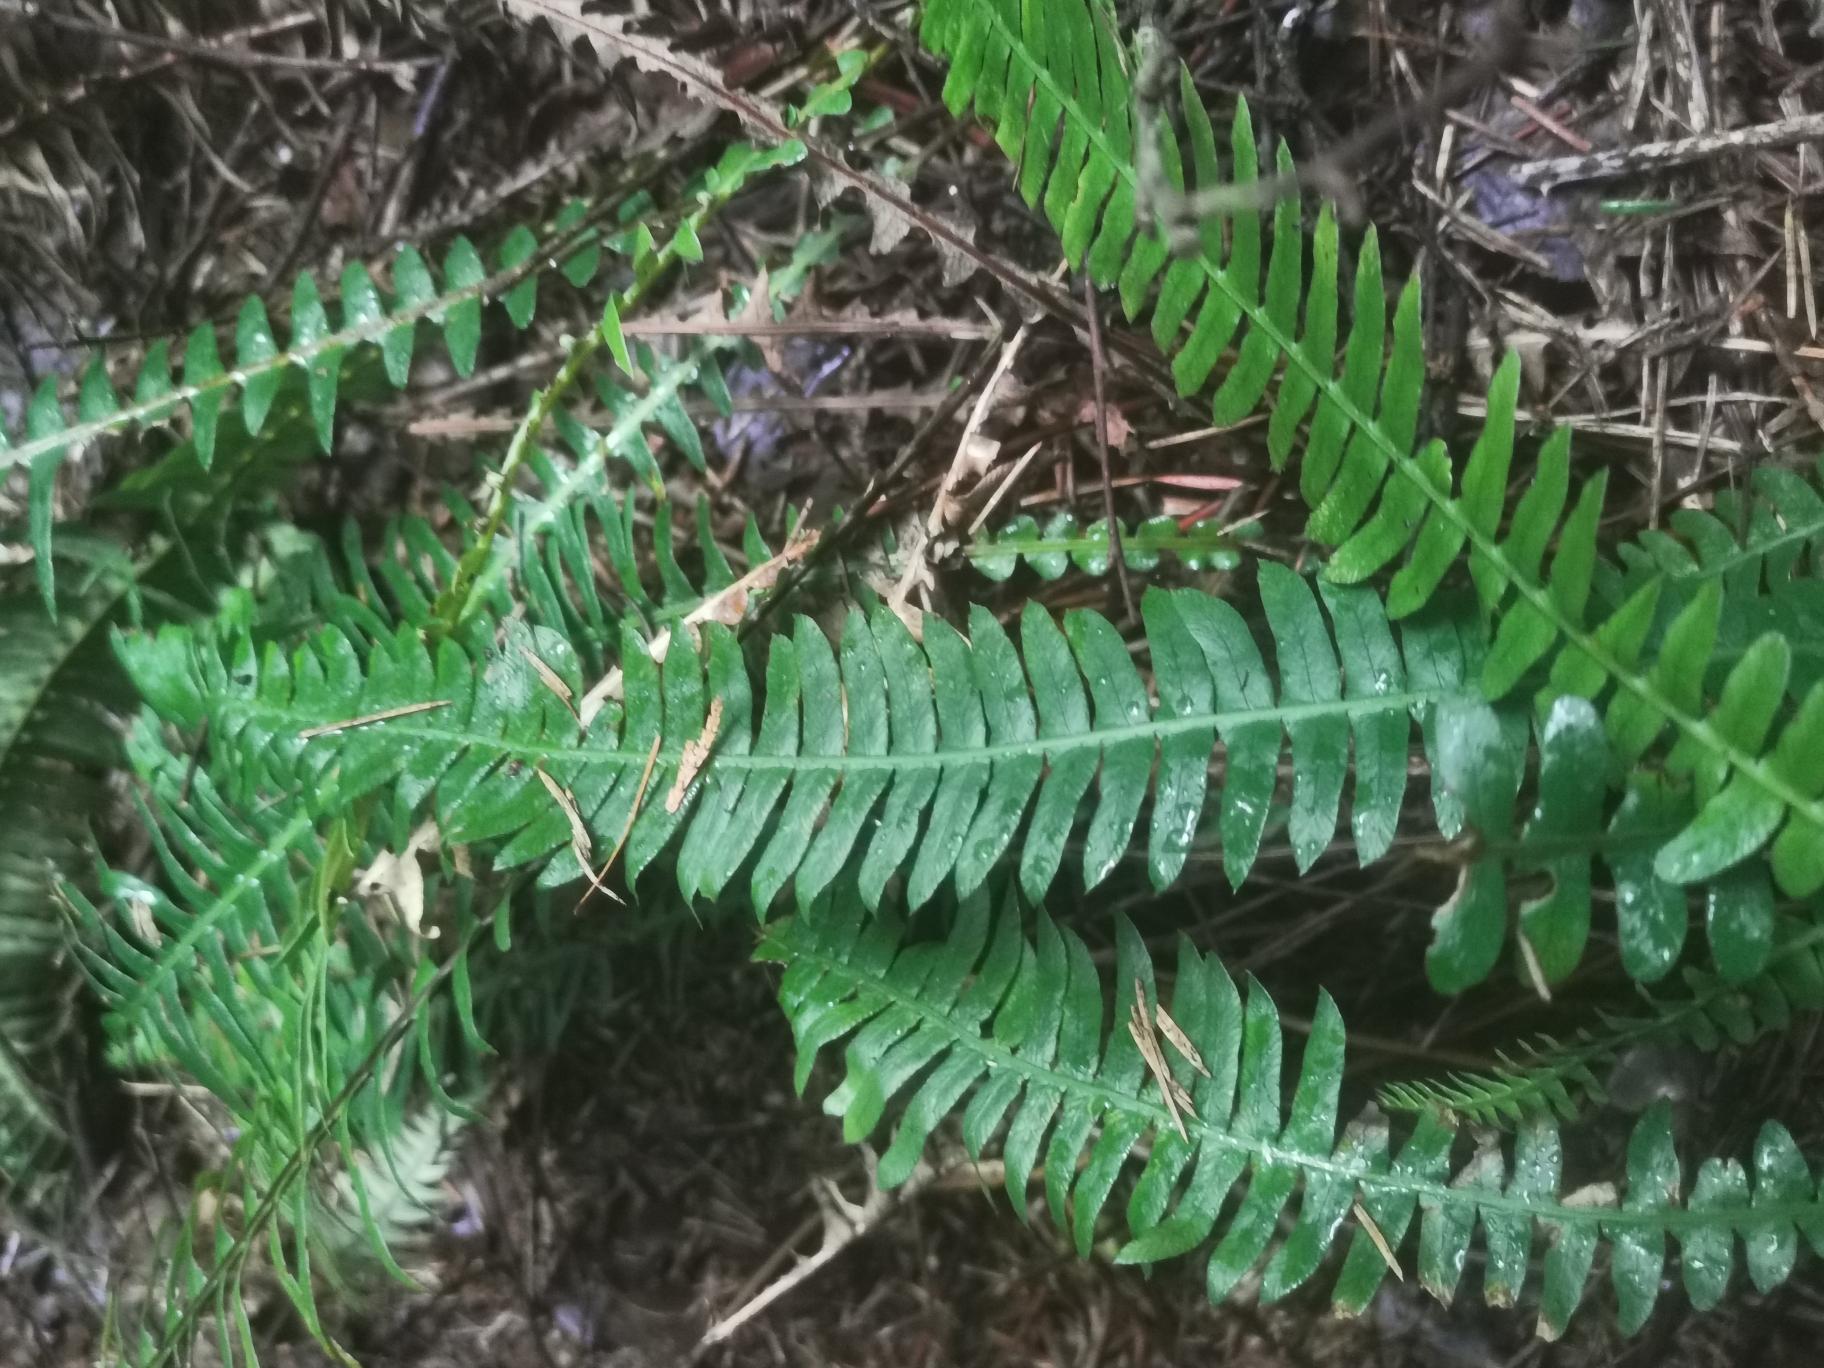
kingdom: Plantae
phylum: Tracheophyta
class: Polypodiopsida
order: Polypodiales
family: Blechnaceae
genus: Struthiopteris
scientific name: Struthiopteris spicant
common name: Kambregne
